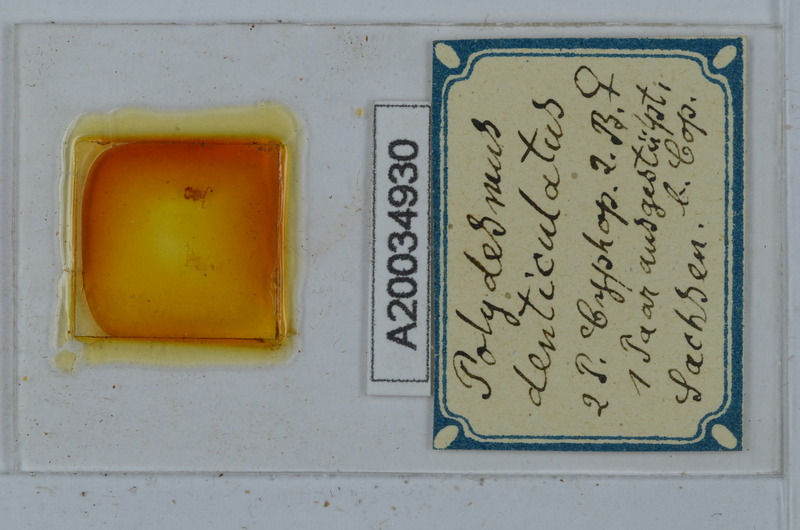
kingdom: Animalia
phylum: Arthropoda
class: Diplopoda
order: Polydesmida
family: Polydesmidae
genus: Polydesmus
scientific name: Polydesmus denticulatus
